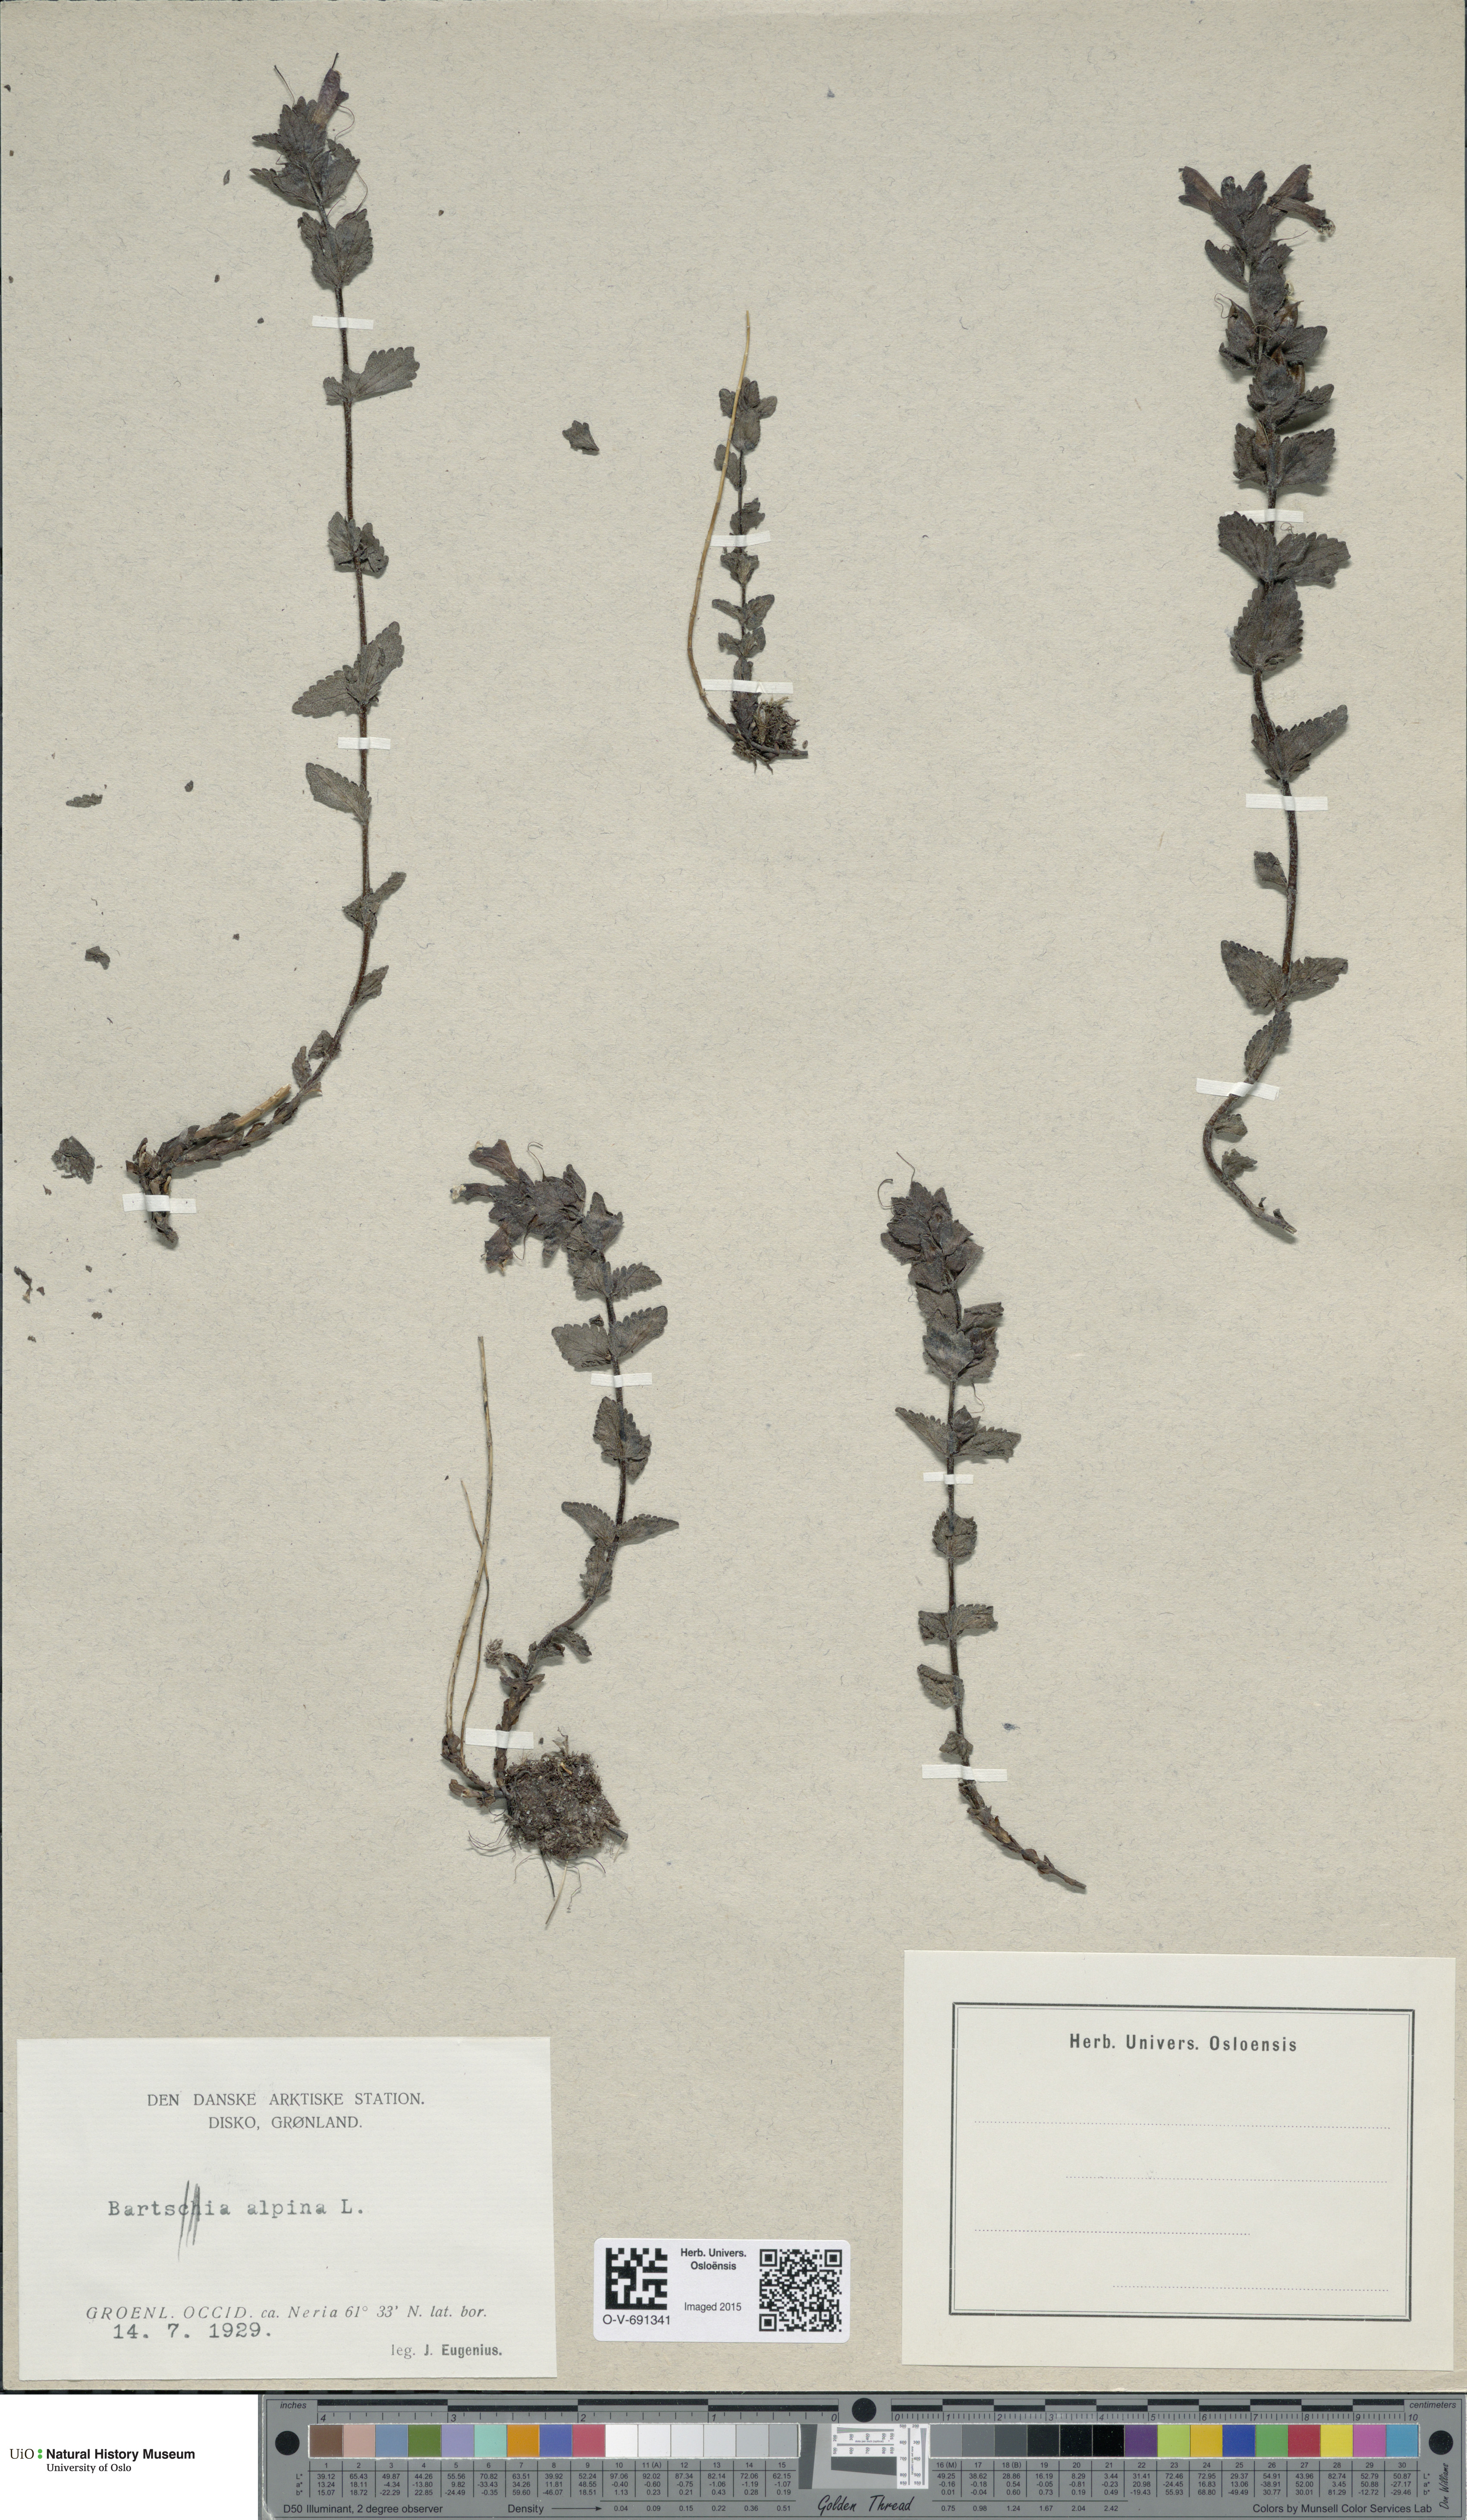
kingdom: Plantae
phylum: Tracheophyta
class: Magnoliopsida
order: Lamiales
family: Orobanchaceae
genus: Bartsia
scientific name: Bartsia alpina
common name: Alpine bartsia
